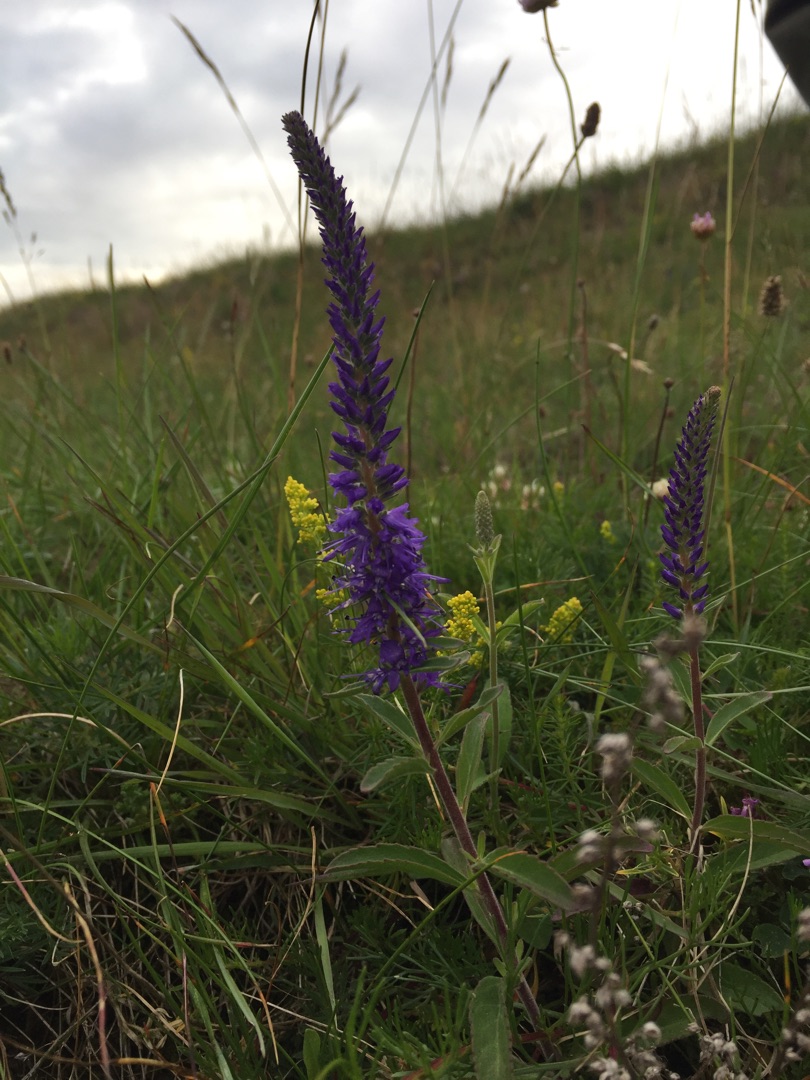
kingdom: Plantae
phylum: Tracheophyta
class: Magnoliopsida
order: Lamiales
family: Plantaginaceae
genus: Veronica
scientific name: Veronica spicata
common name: Aks-ærenpris
